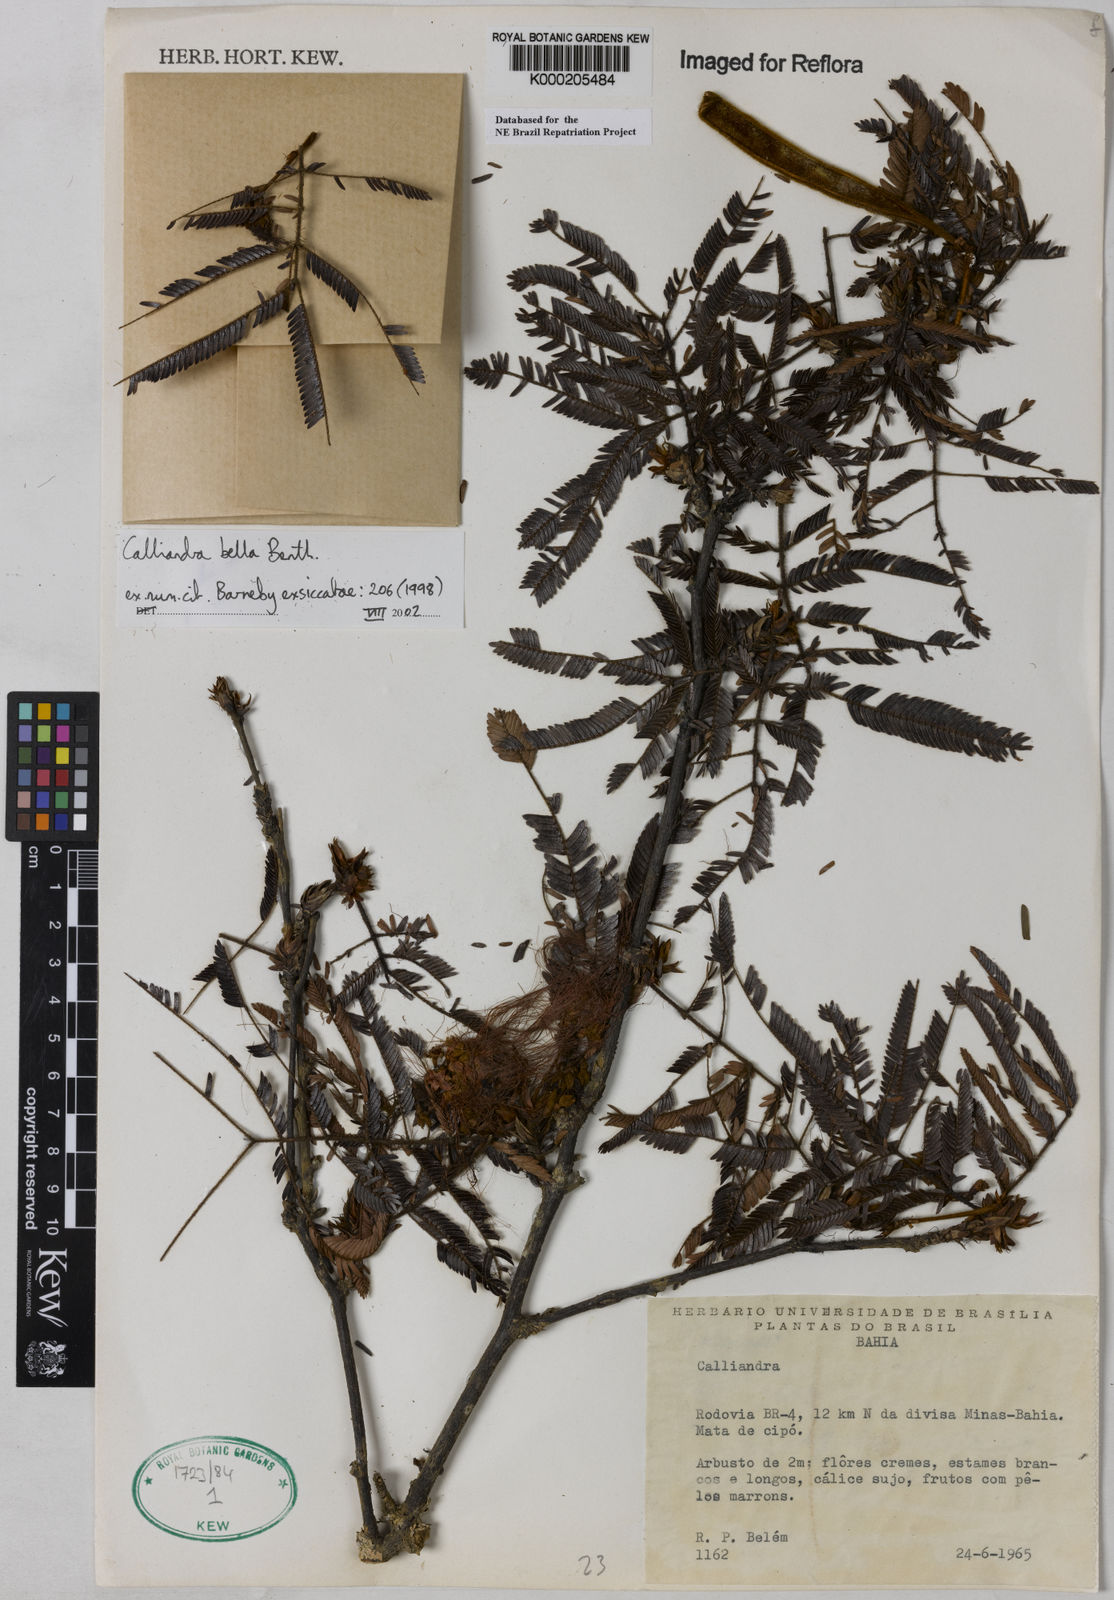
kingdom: Plantae
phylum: Tracheophyta
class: Magnoliopsida
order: Fabales
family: Fabaceae
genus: Calliandra
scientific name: Calliandra bella
